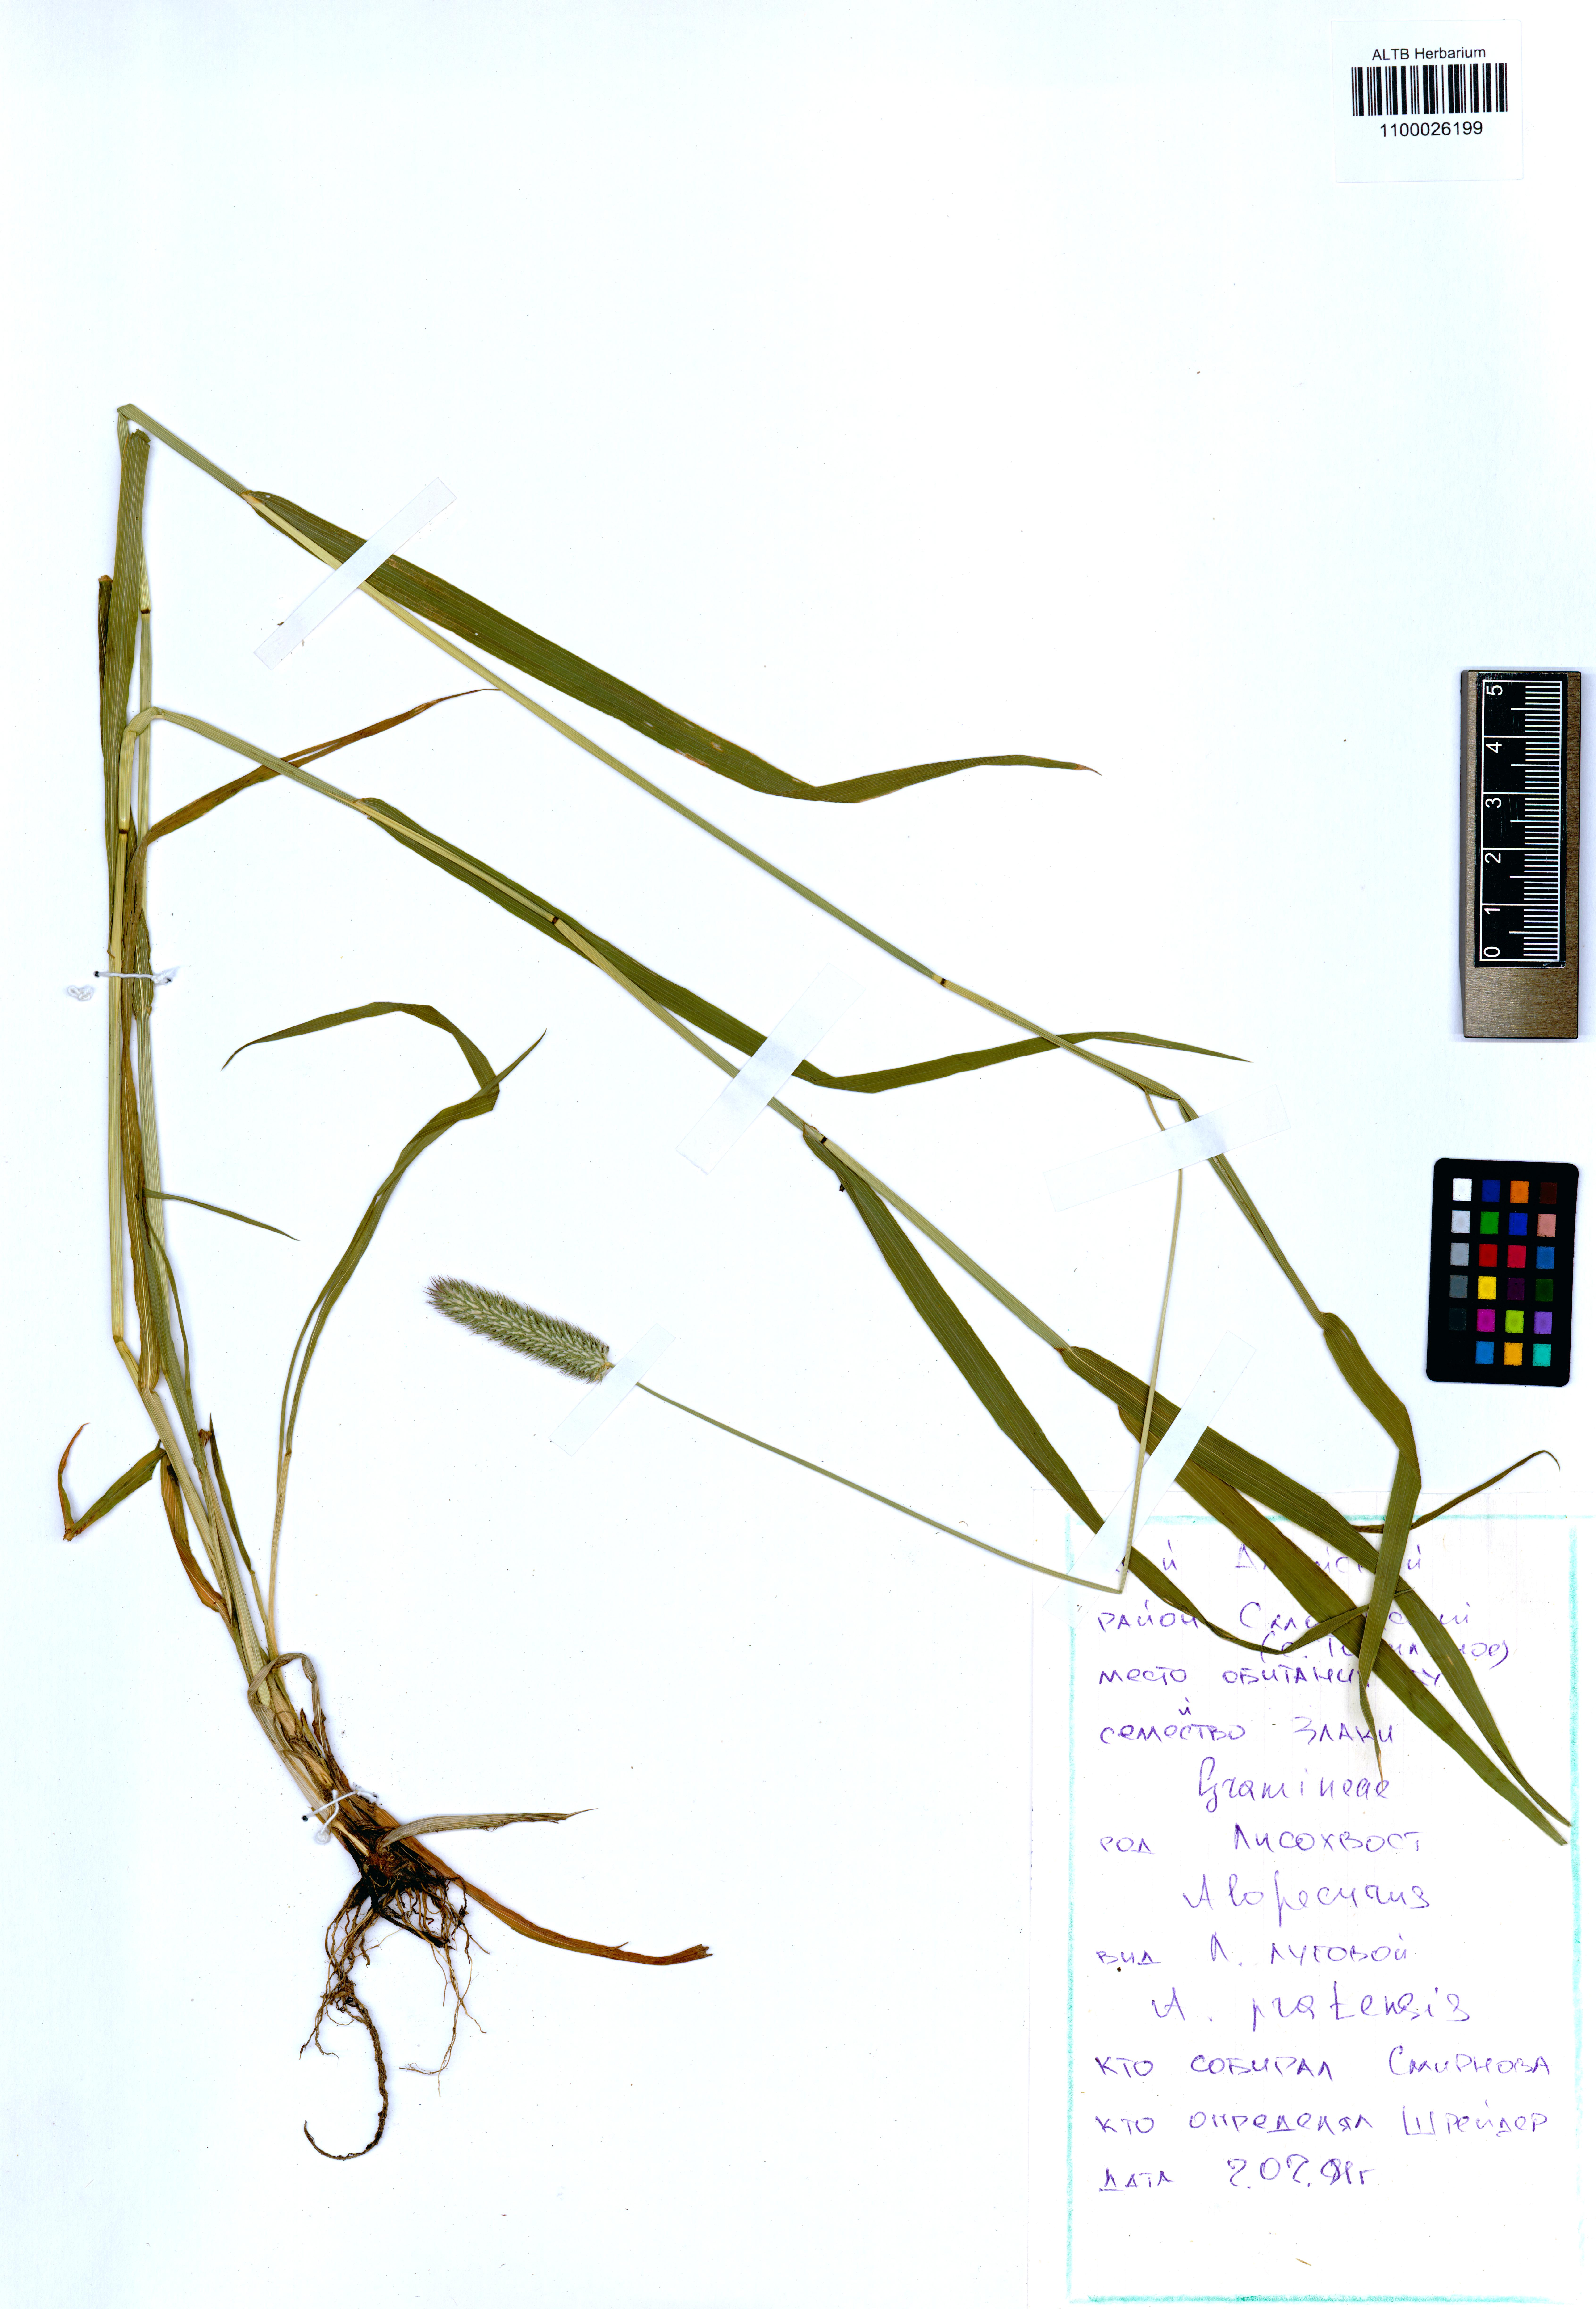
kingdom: Plantae
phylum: Tracheophyta
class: Liliopsida
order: Poales
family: Poaceae
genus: Phleum
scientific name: Phleum pratense
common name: Timothy grass
